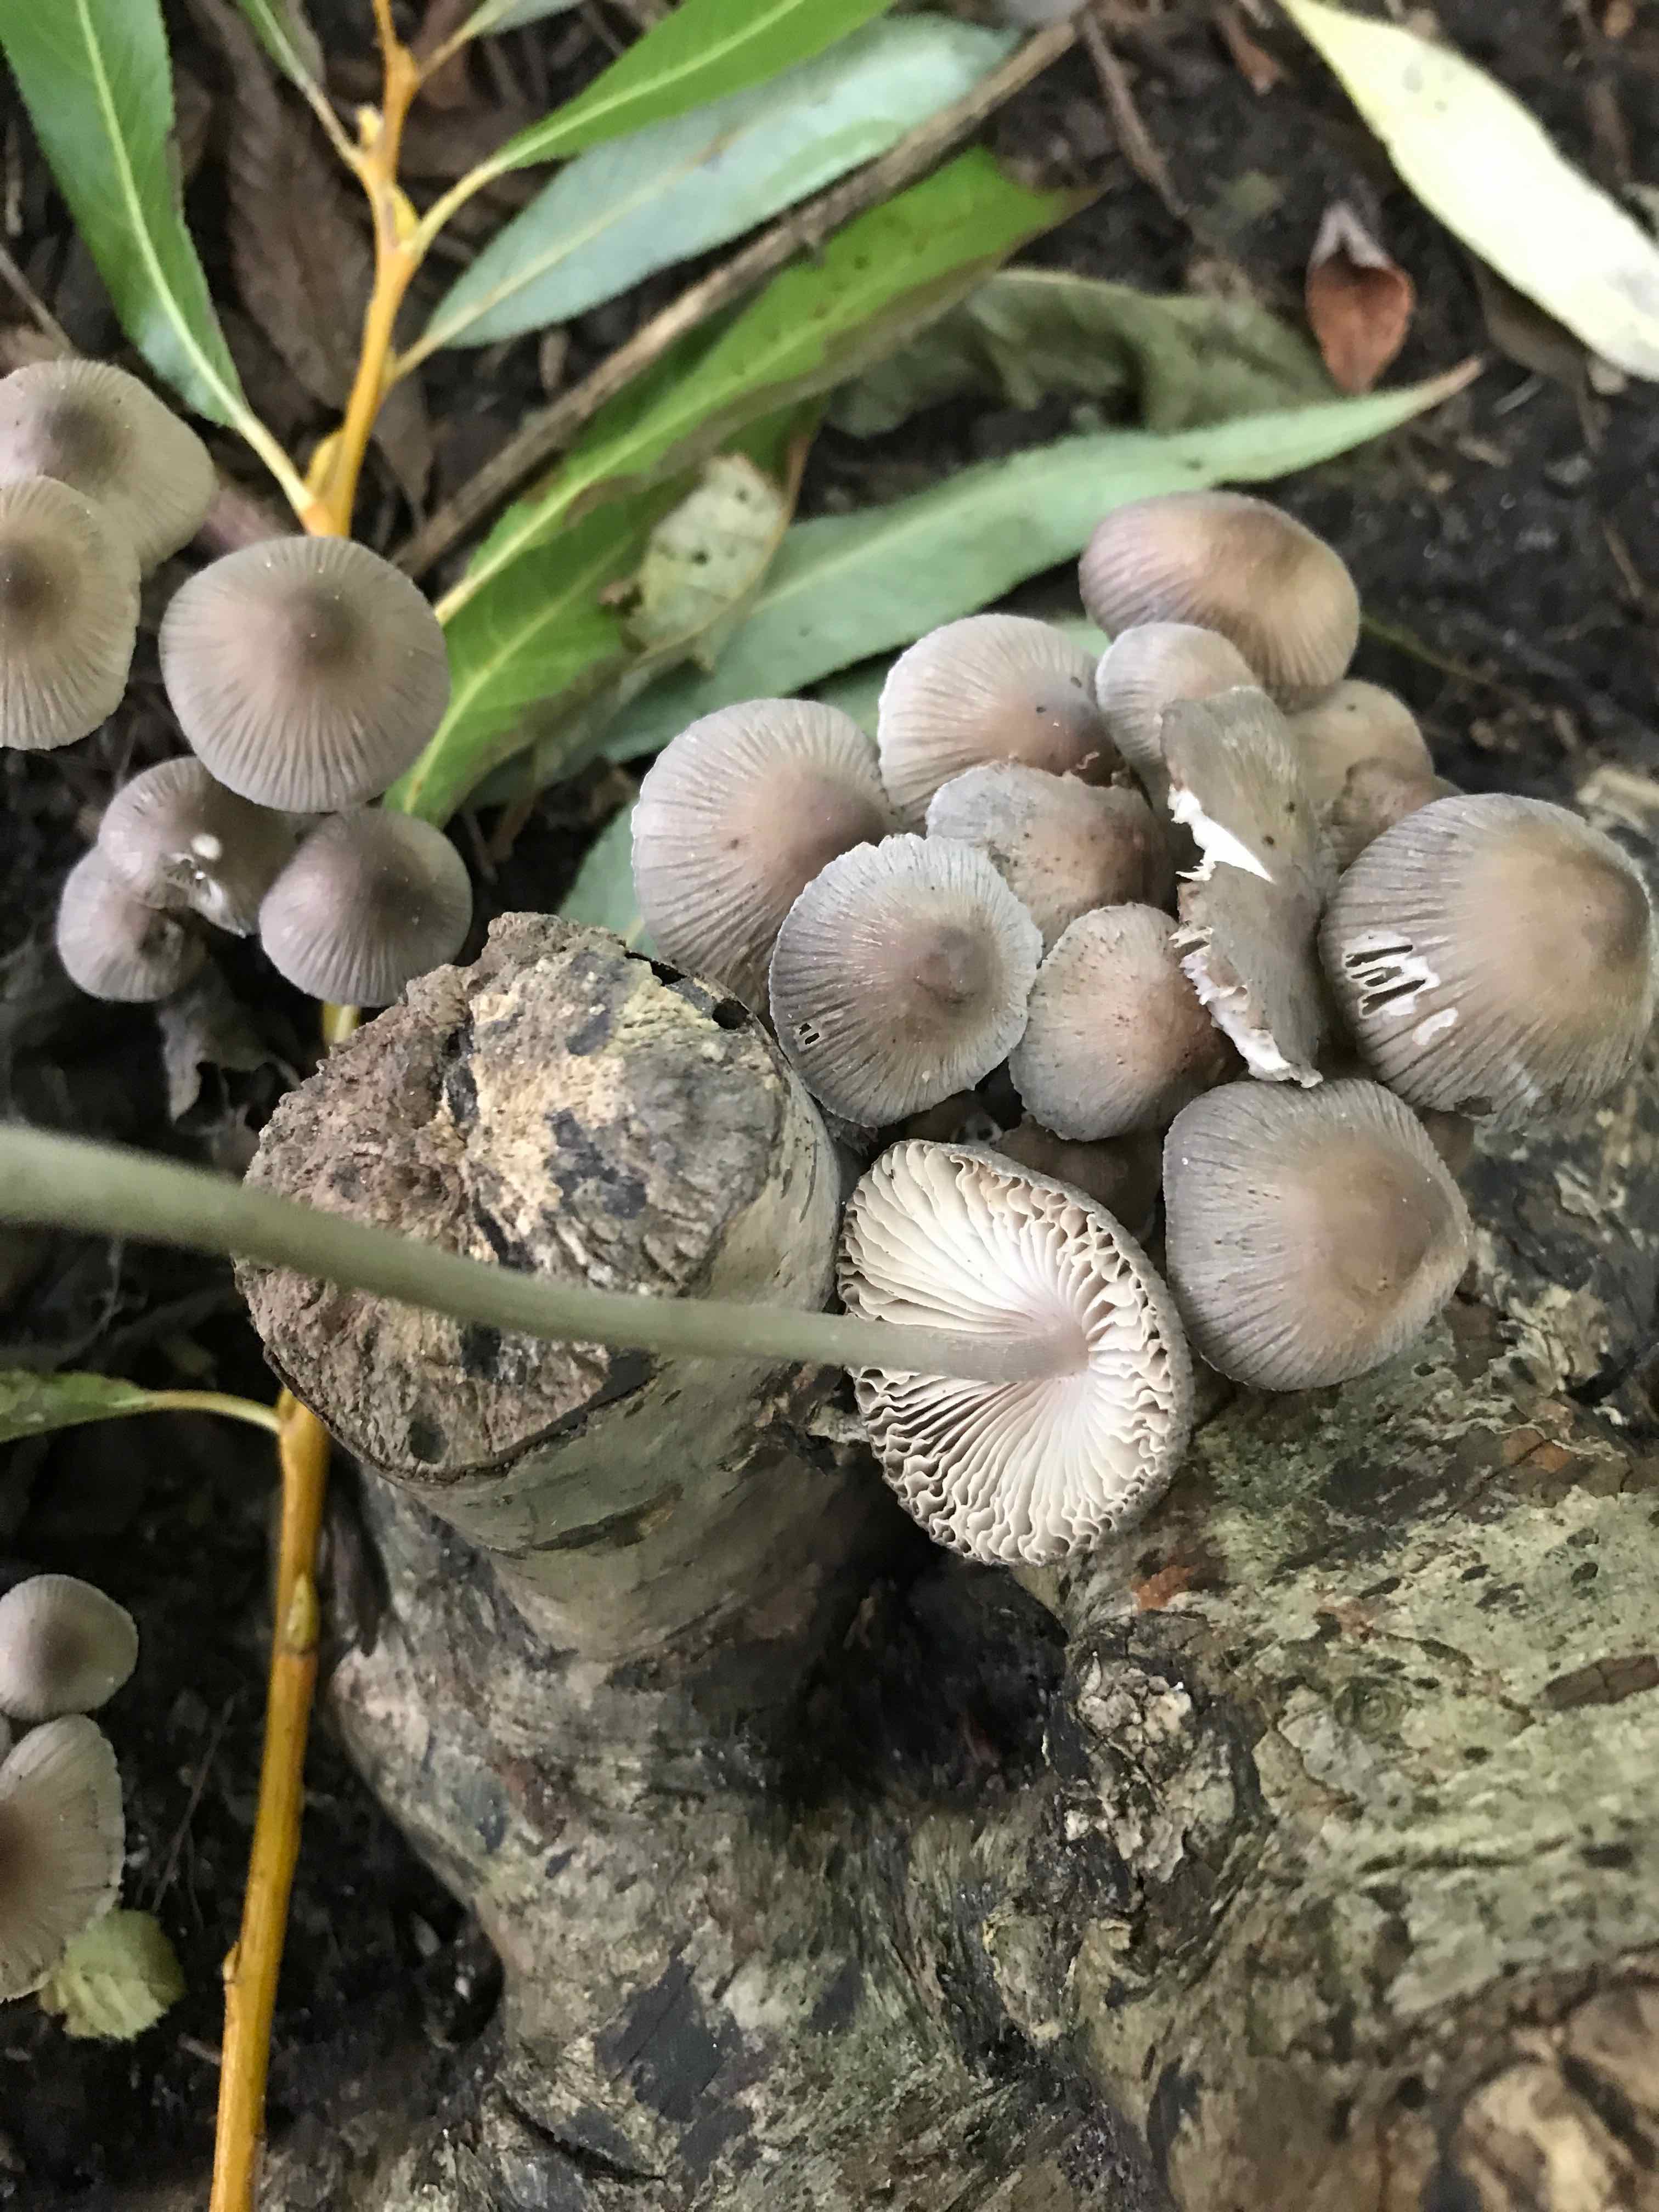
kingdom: Fungi
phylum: Basidiomycota
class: Agaricomycetes
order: Agaricales
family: Mycenaceae
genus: Mycena
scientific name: Mycena
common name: huesvamp
